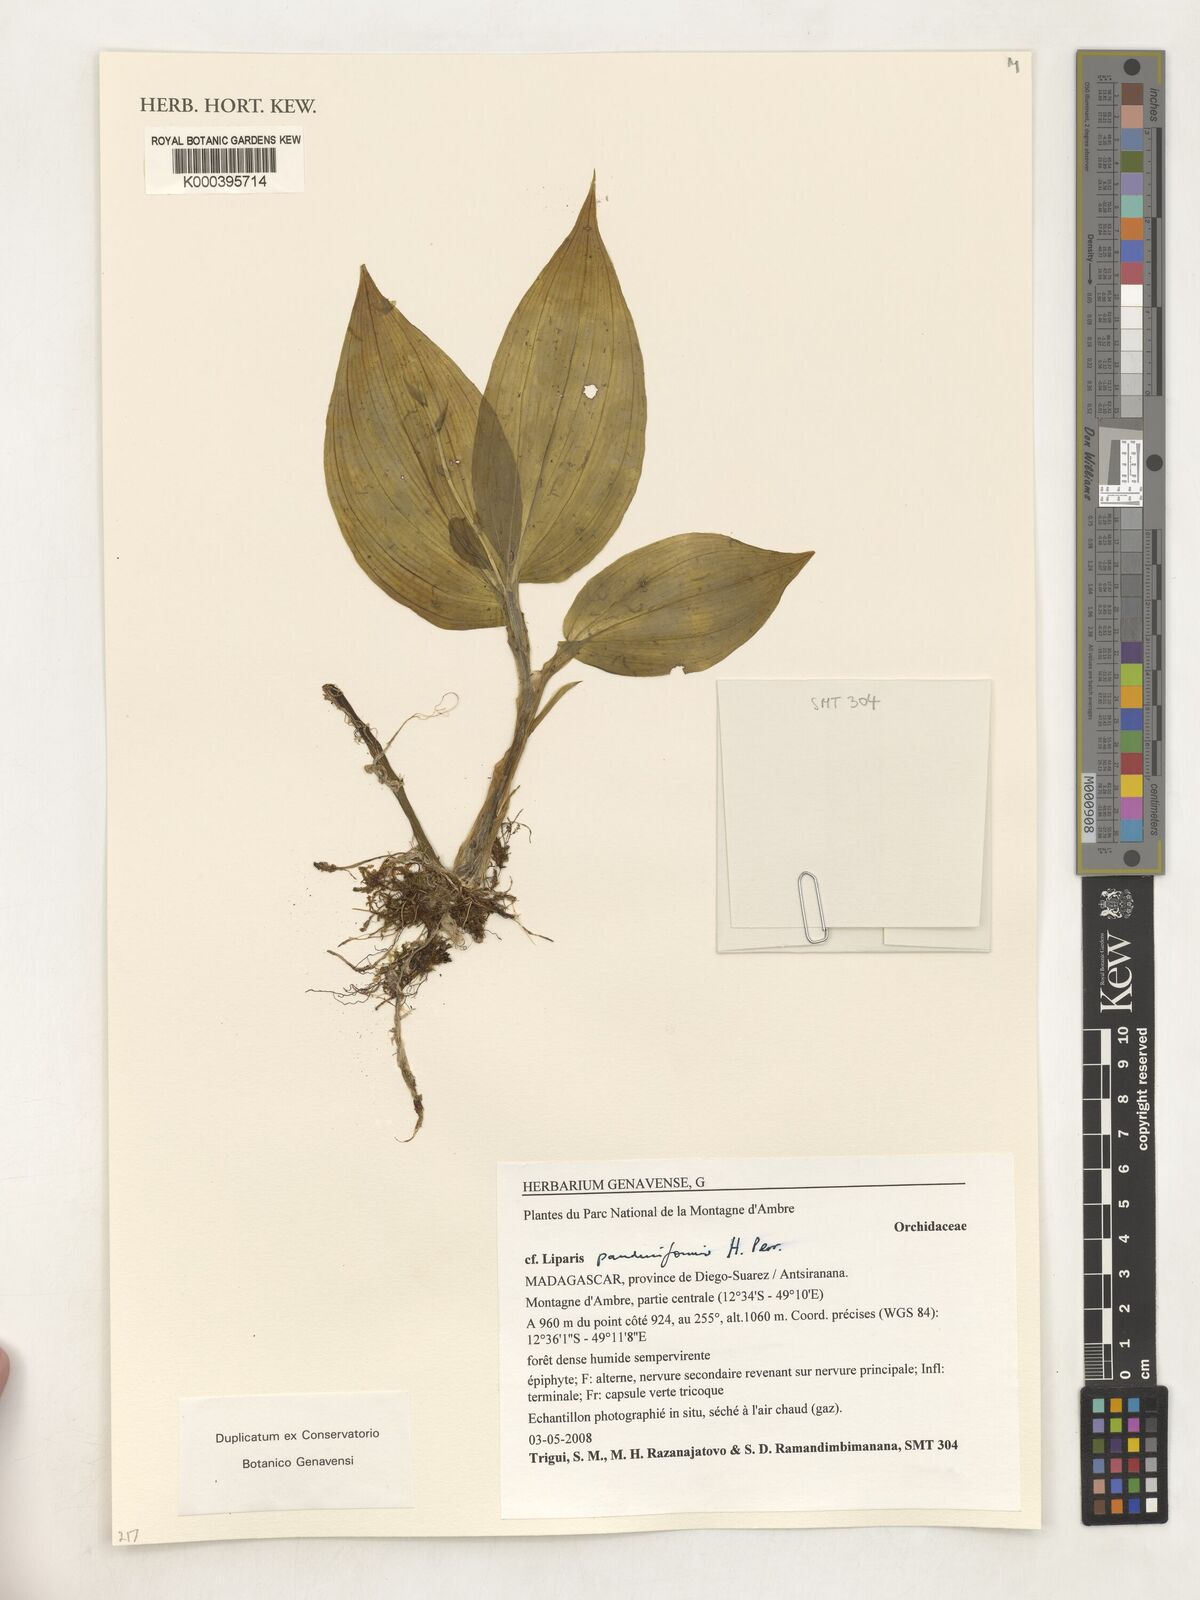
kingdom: Plantae
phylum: Tracheophyta
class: Liliopsida
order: Asparagales
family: Orchidaceae
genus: Liparis
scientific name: Liparis sambiranoensis
